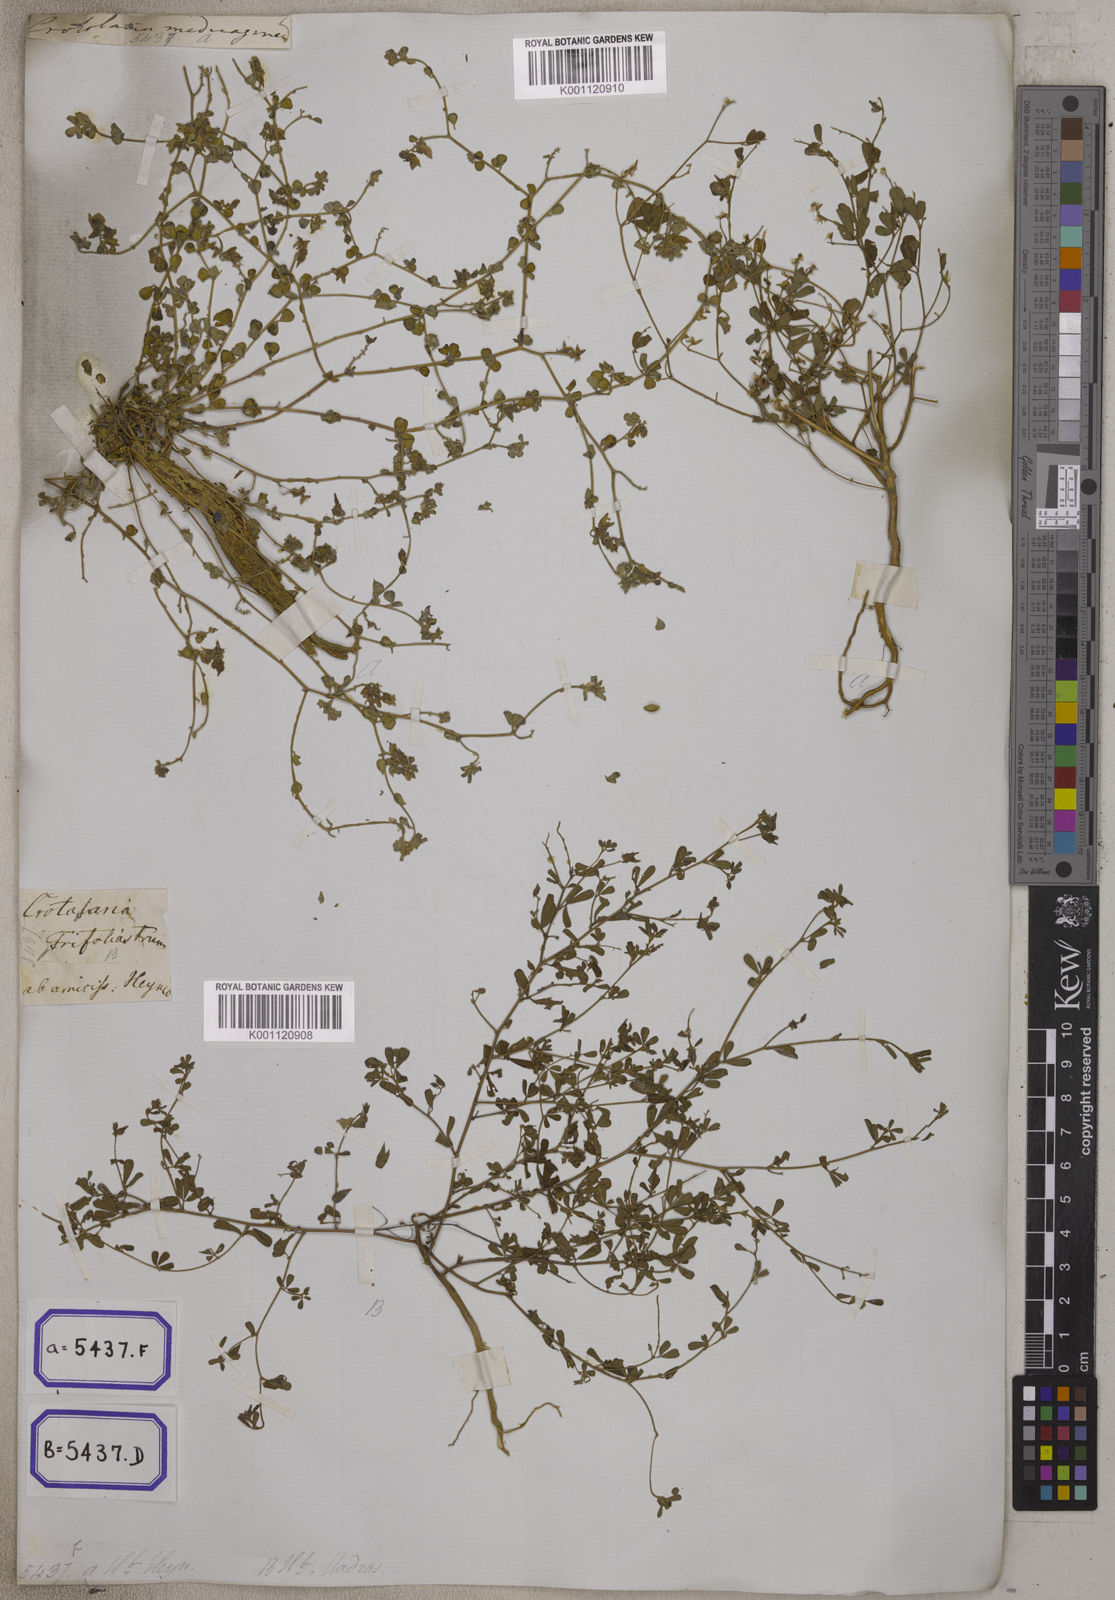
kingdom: Plantae
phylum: Tracheophyta
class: Magnoliopsida
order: Fabales
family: Fabaceae
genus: Crotalaria
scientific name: Crotalaria
